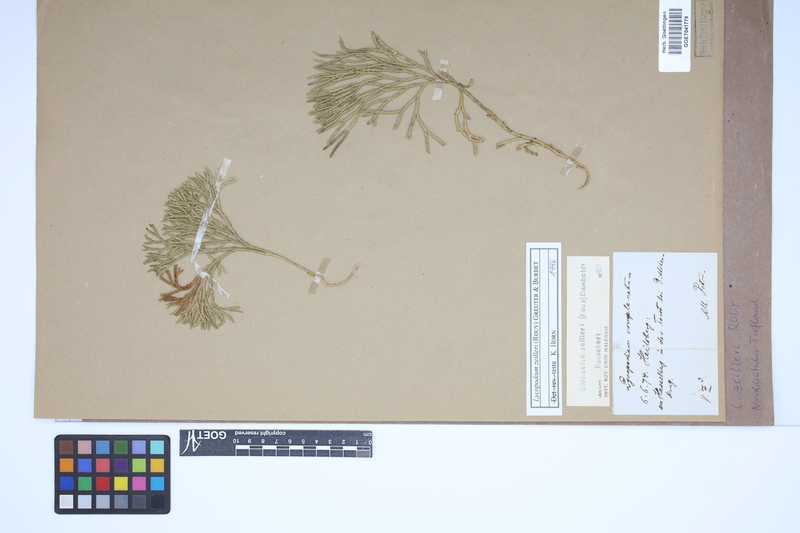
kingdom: Plantae
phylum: Tracheophyta
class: Lycopodiopsida
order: Lycopodiales
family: Lycopodiaceae
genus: Diphasiastrum
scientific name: Diphasiastrum zeilleri
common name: Zeiller's clubmoss
